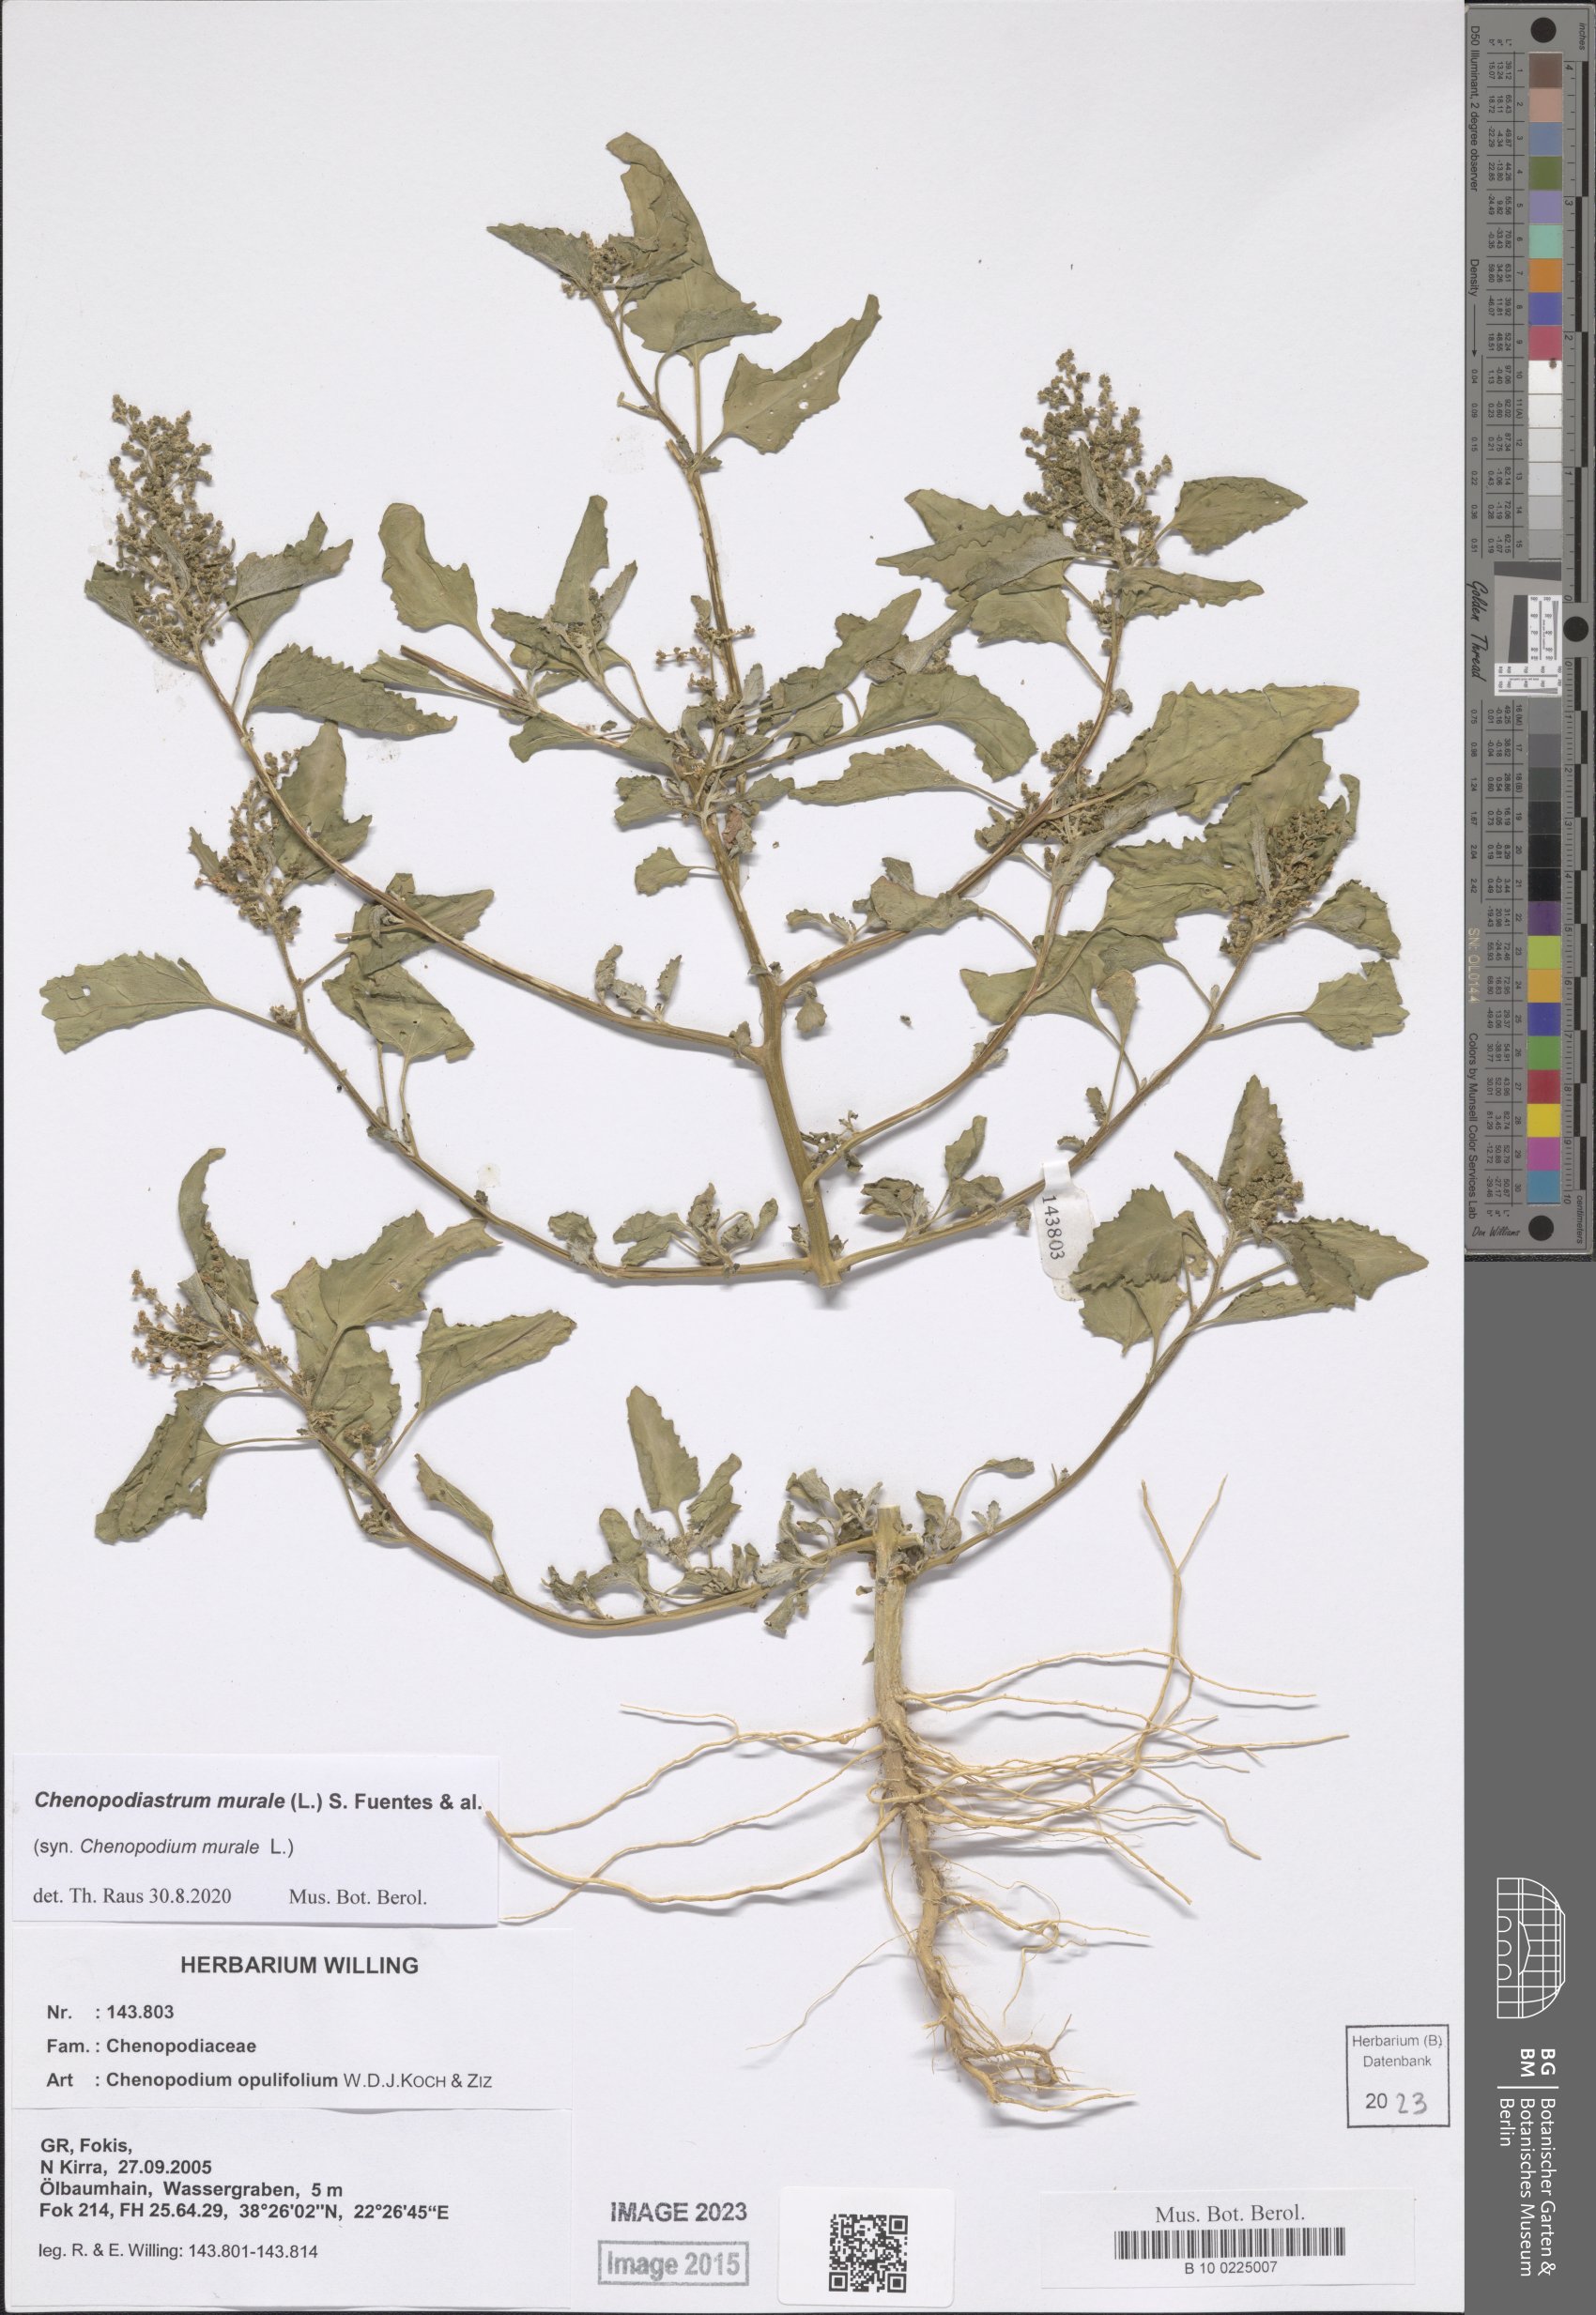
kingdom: Plantae
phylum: Tracheophyta
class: Magnoliopsida
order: Caryophyllales
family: Amaranthaceae
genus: Chenopodiastrum
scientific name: Chenopodiastrum murale
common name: Sowbane
